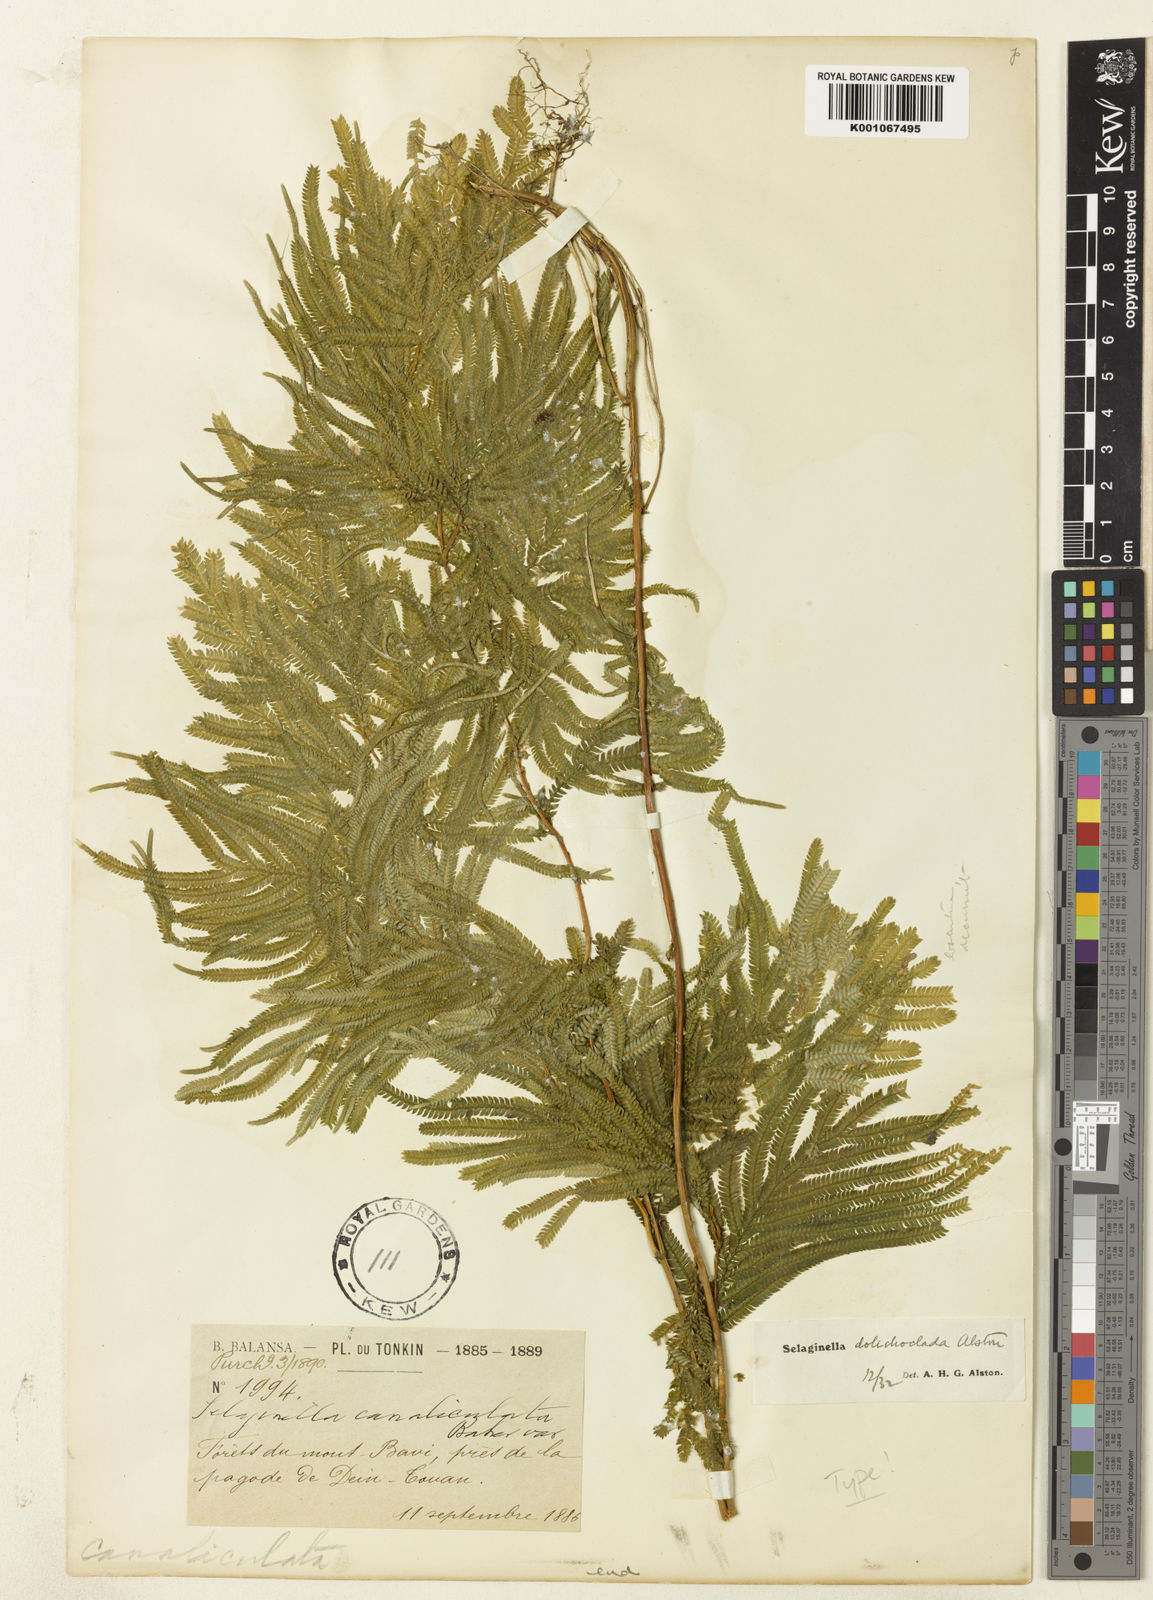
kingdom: Plantae
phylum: Tracheophyta
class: Lycopodiopsida
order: Selaginellales
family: Selaginellaceae
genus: Selaginella
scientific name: Selaginella dolichoclada
